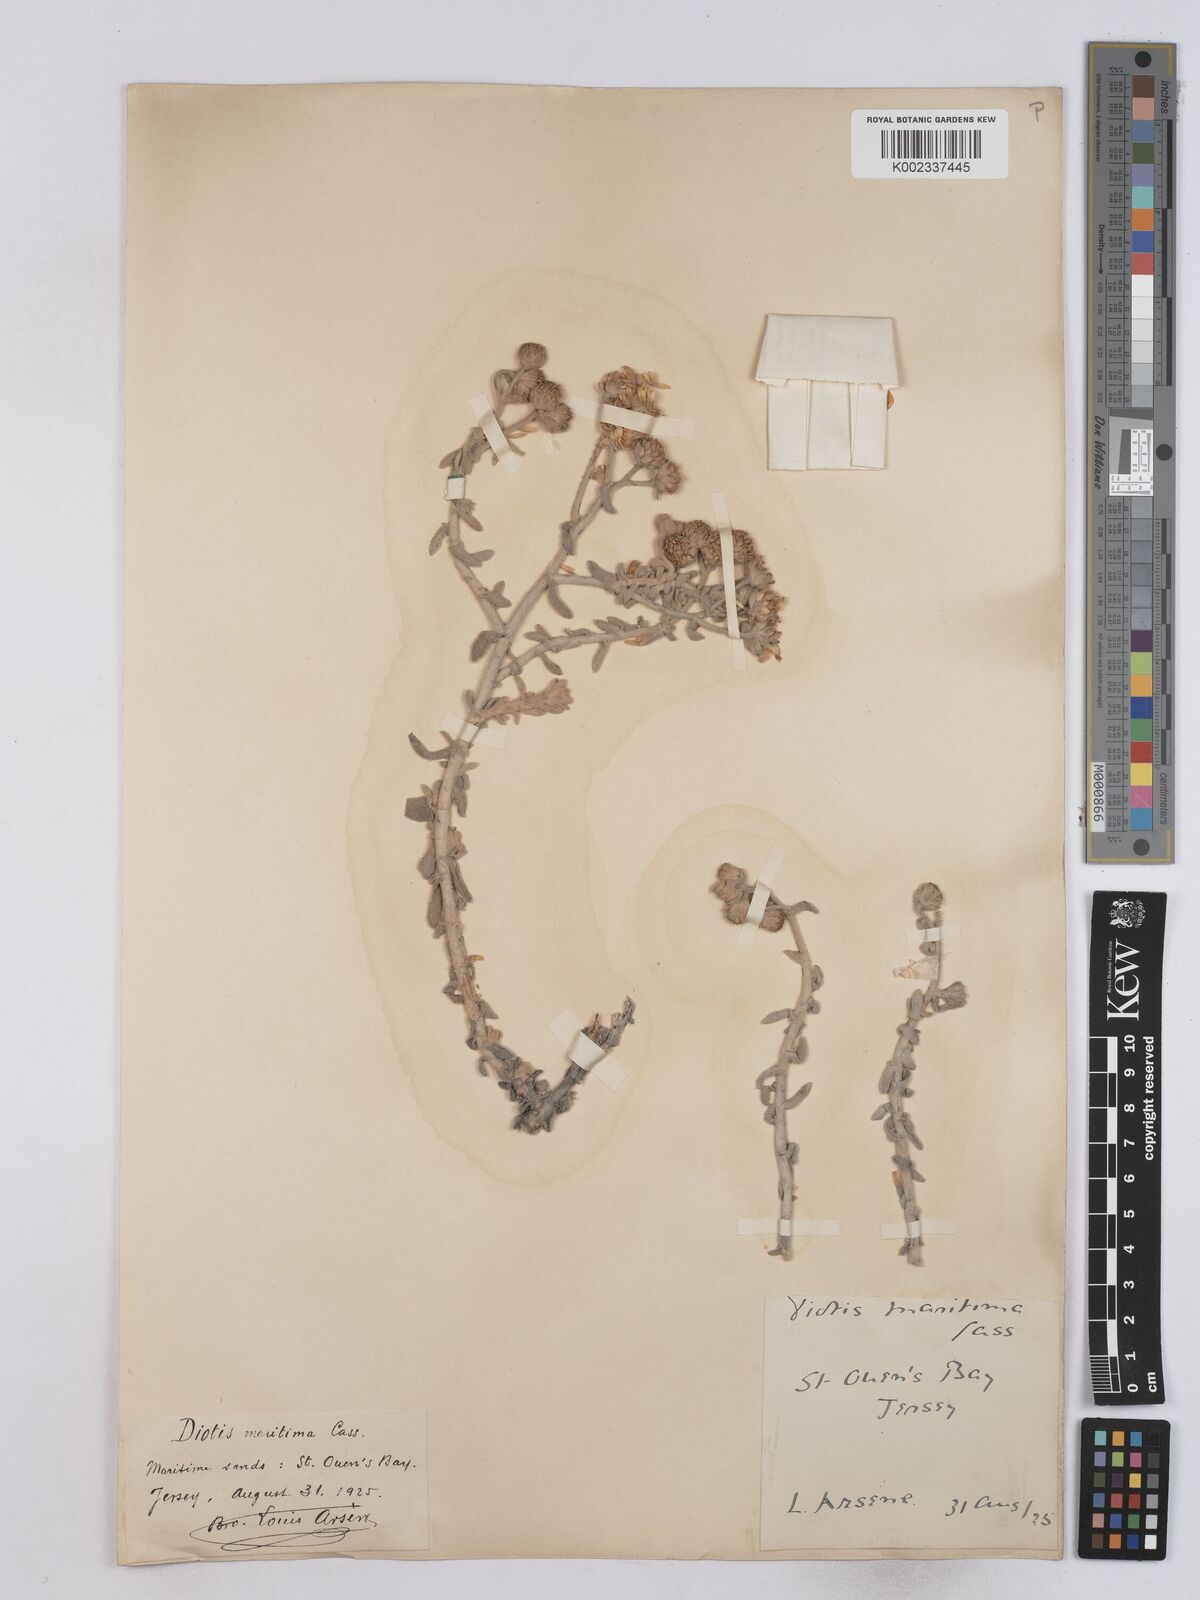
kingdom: Plantae
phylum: Tracheophyta
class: Magnoliopsida
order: Asterales
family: Asteraceae
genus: Achillea
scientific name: Achillea maritima
